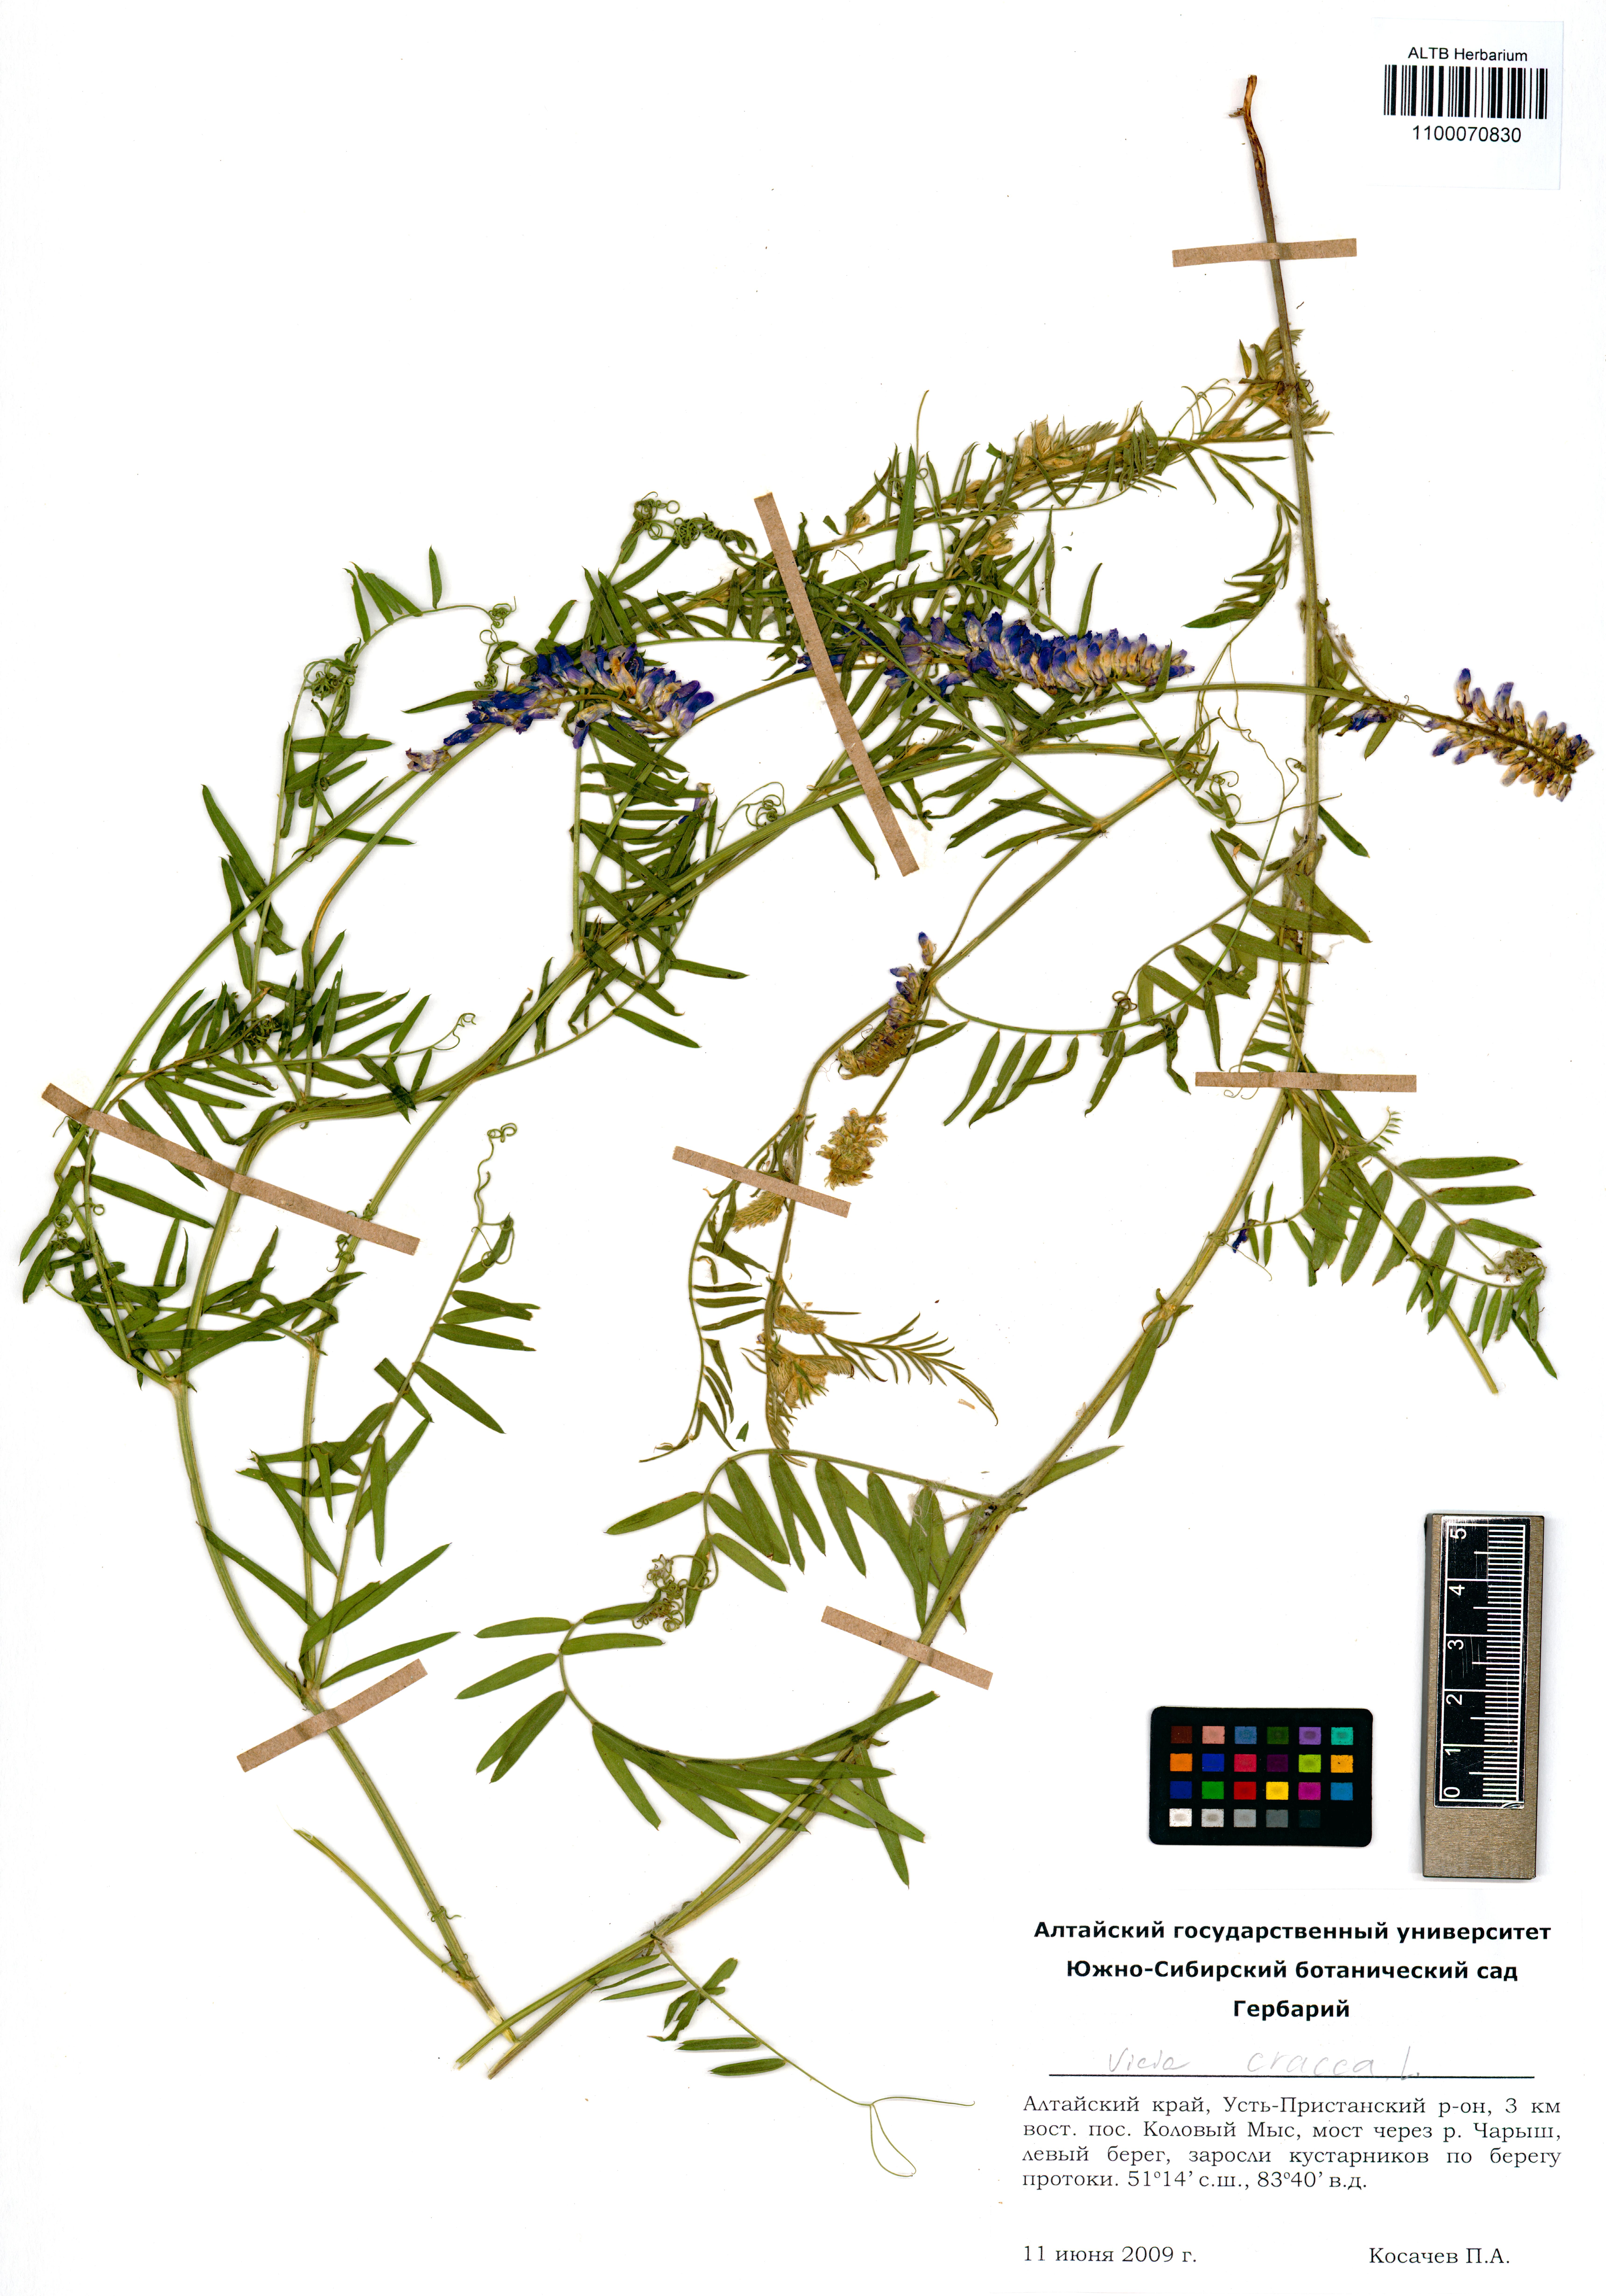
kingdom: Plantae
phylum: Tracheophyta
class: Magnoliopsida
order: Fabales
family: Fabaceae
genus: Vicia
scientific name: Vicia cracca
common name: Bird vetch
